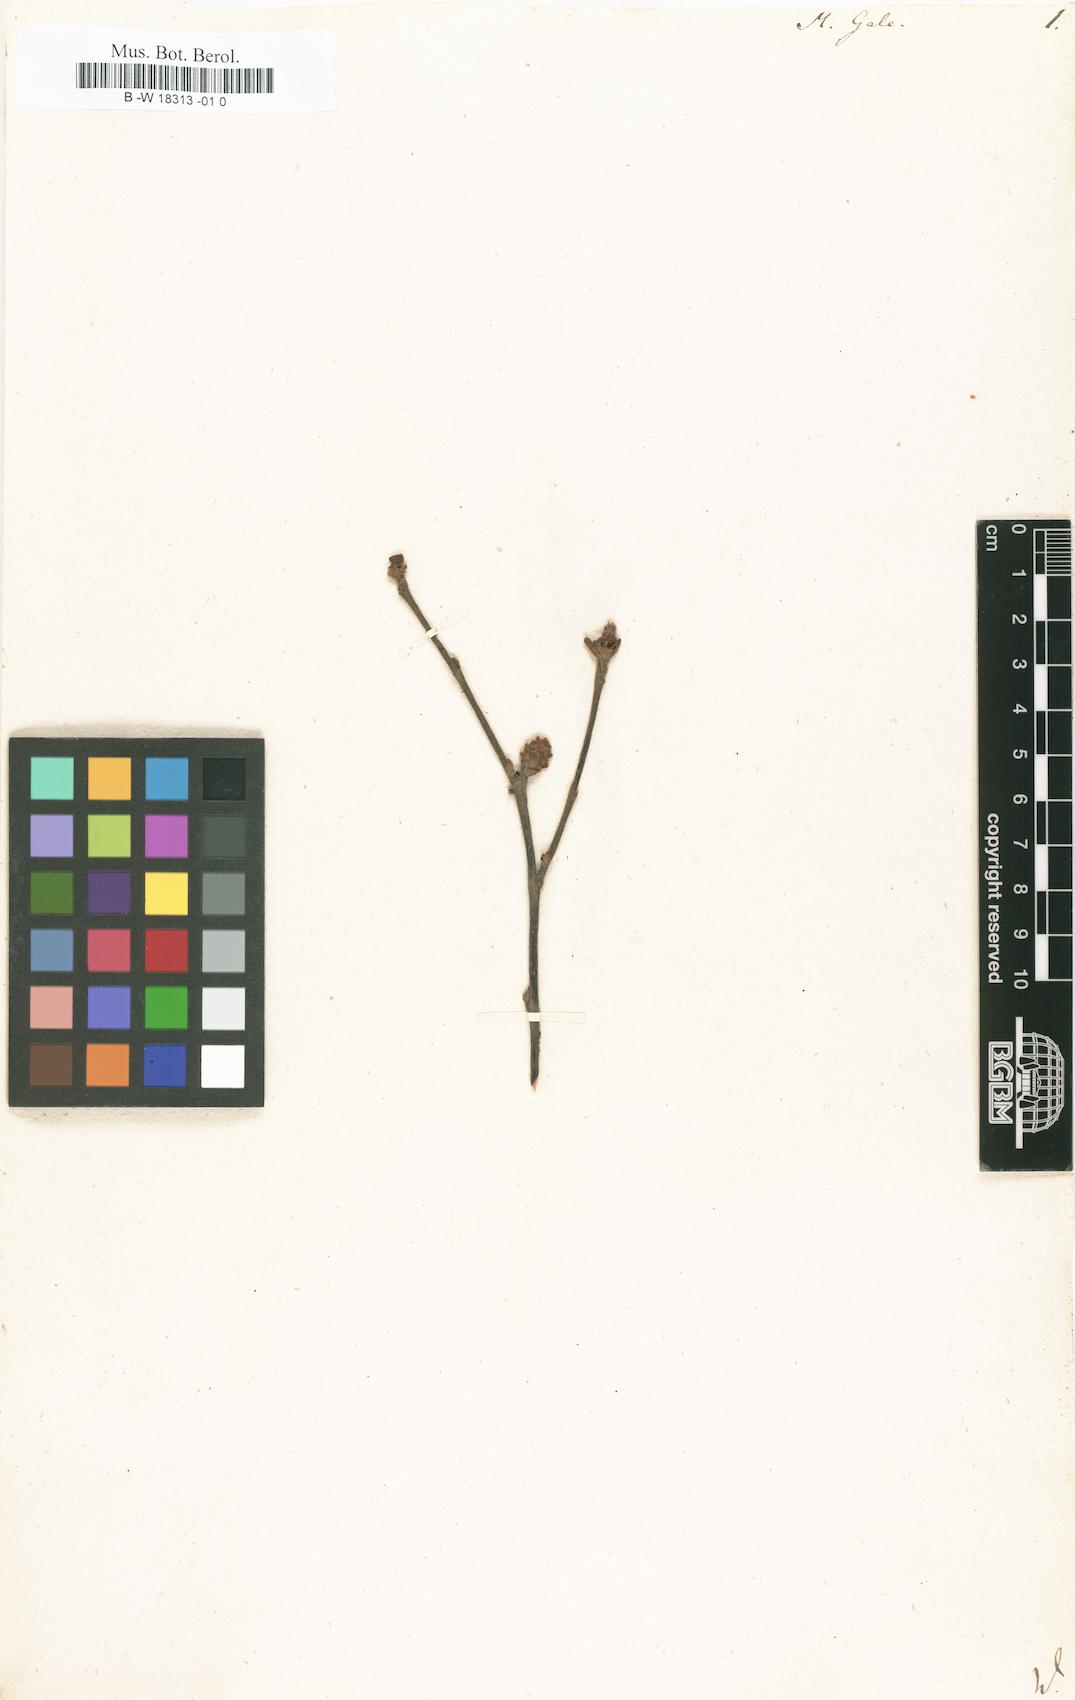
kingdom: Plantae
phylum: Tracheophyta
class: Magnoliopsida
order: Fagales
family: Myricaceae
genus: Myrica
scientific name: Myrica gale
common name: Sweet gale
